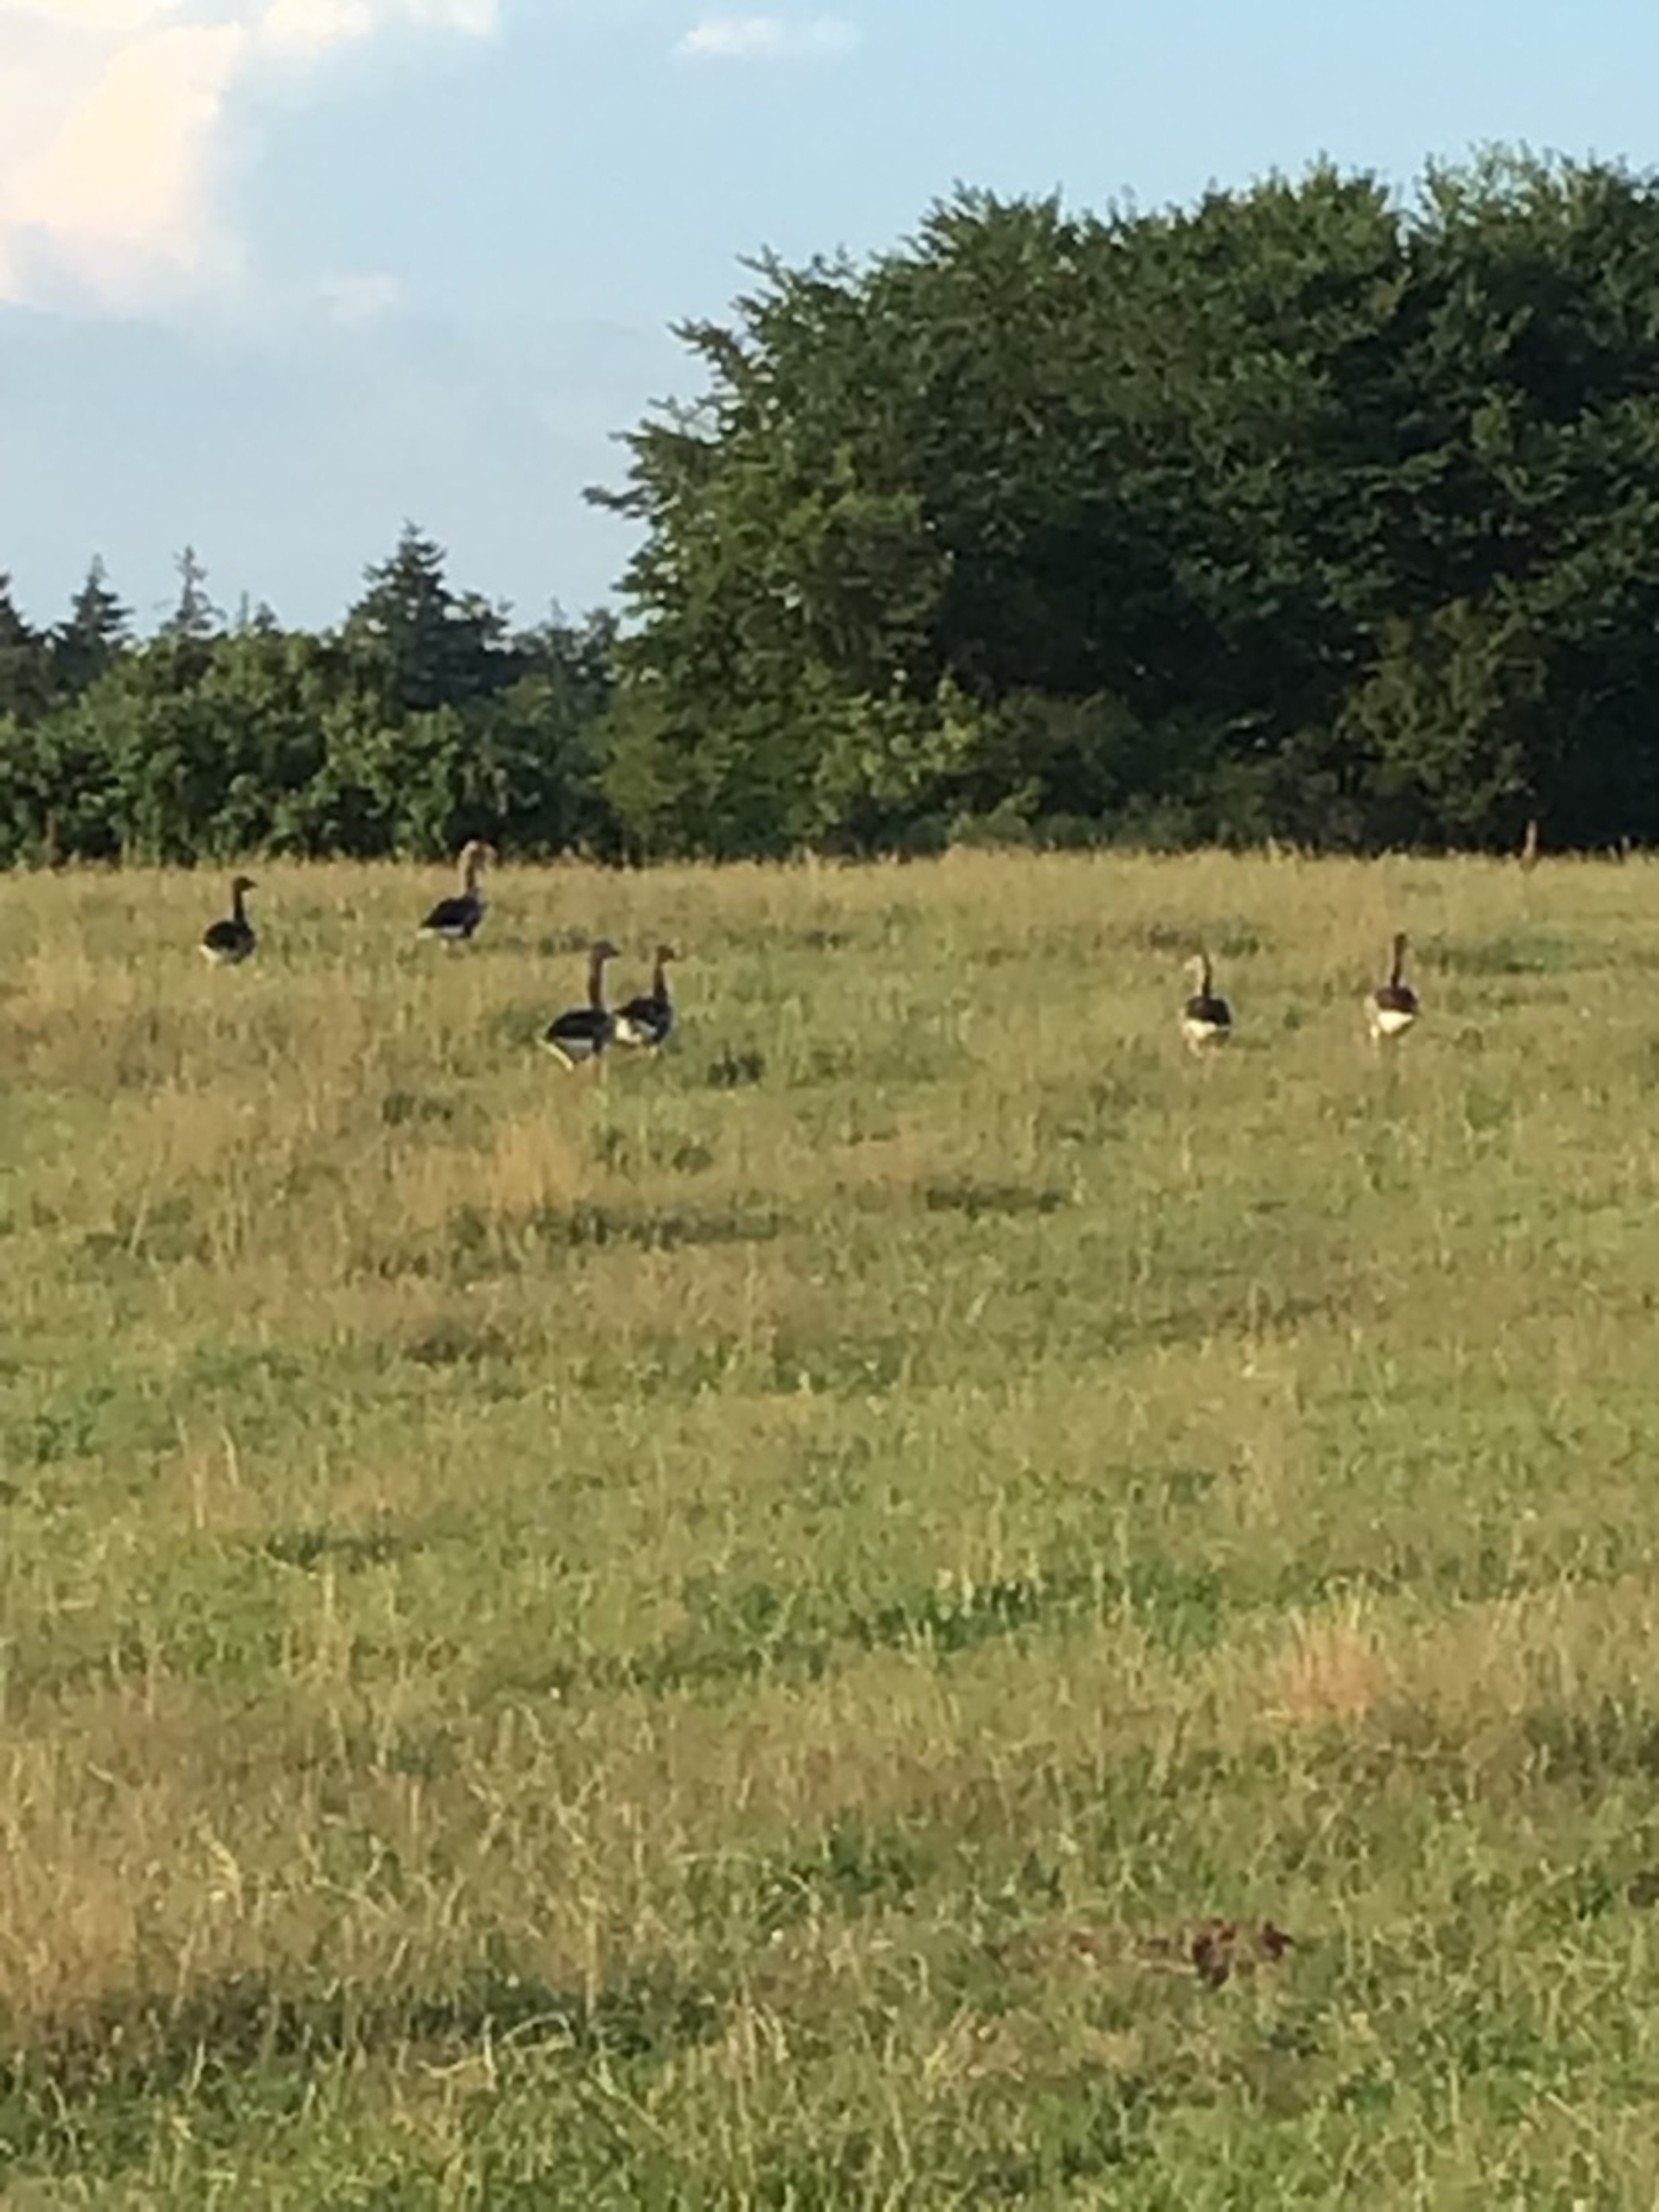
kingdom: Animalia
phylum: Chordata
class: Aves
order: Anseriformes
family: Anatidae
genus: Anser
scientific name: Anser anser
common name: Grågås
